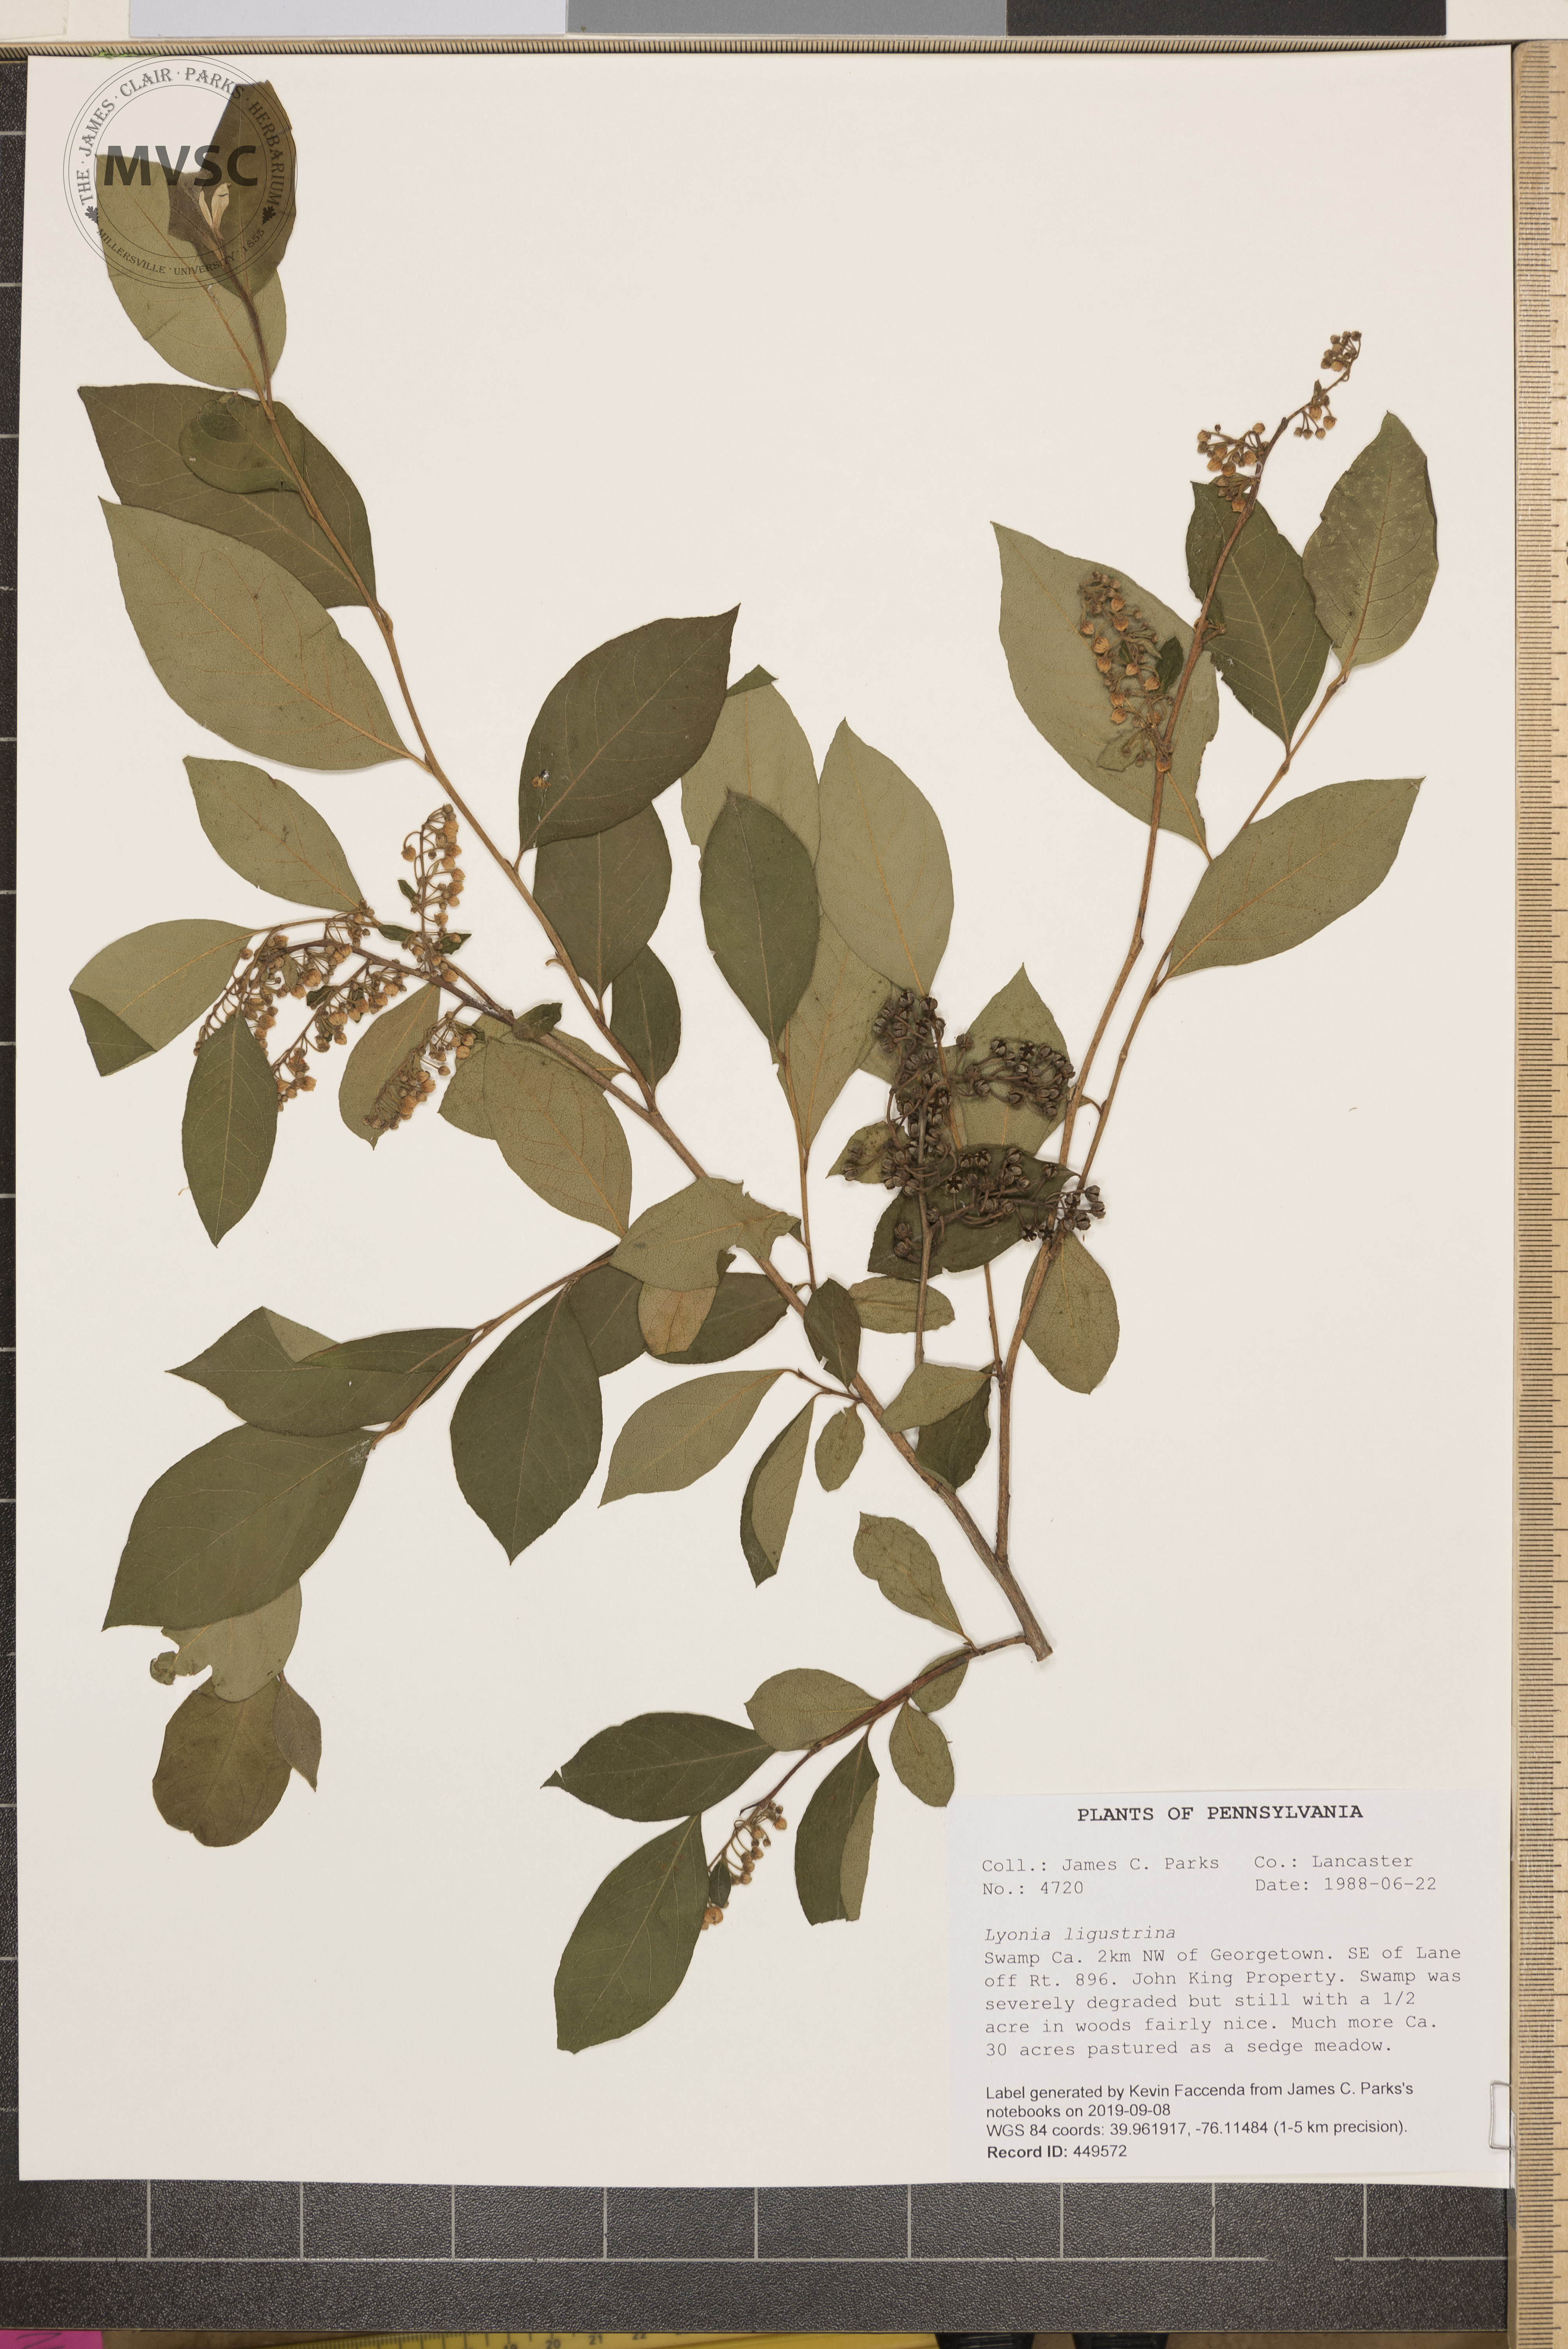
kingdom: Plantae
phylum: Tracheophyta
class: Magnoliopsida
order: Ericales
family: Ericaceae
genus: Lyonia
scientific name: Lyonia ligustrina
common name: Maleberry
